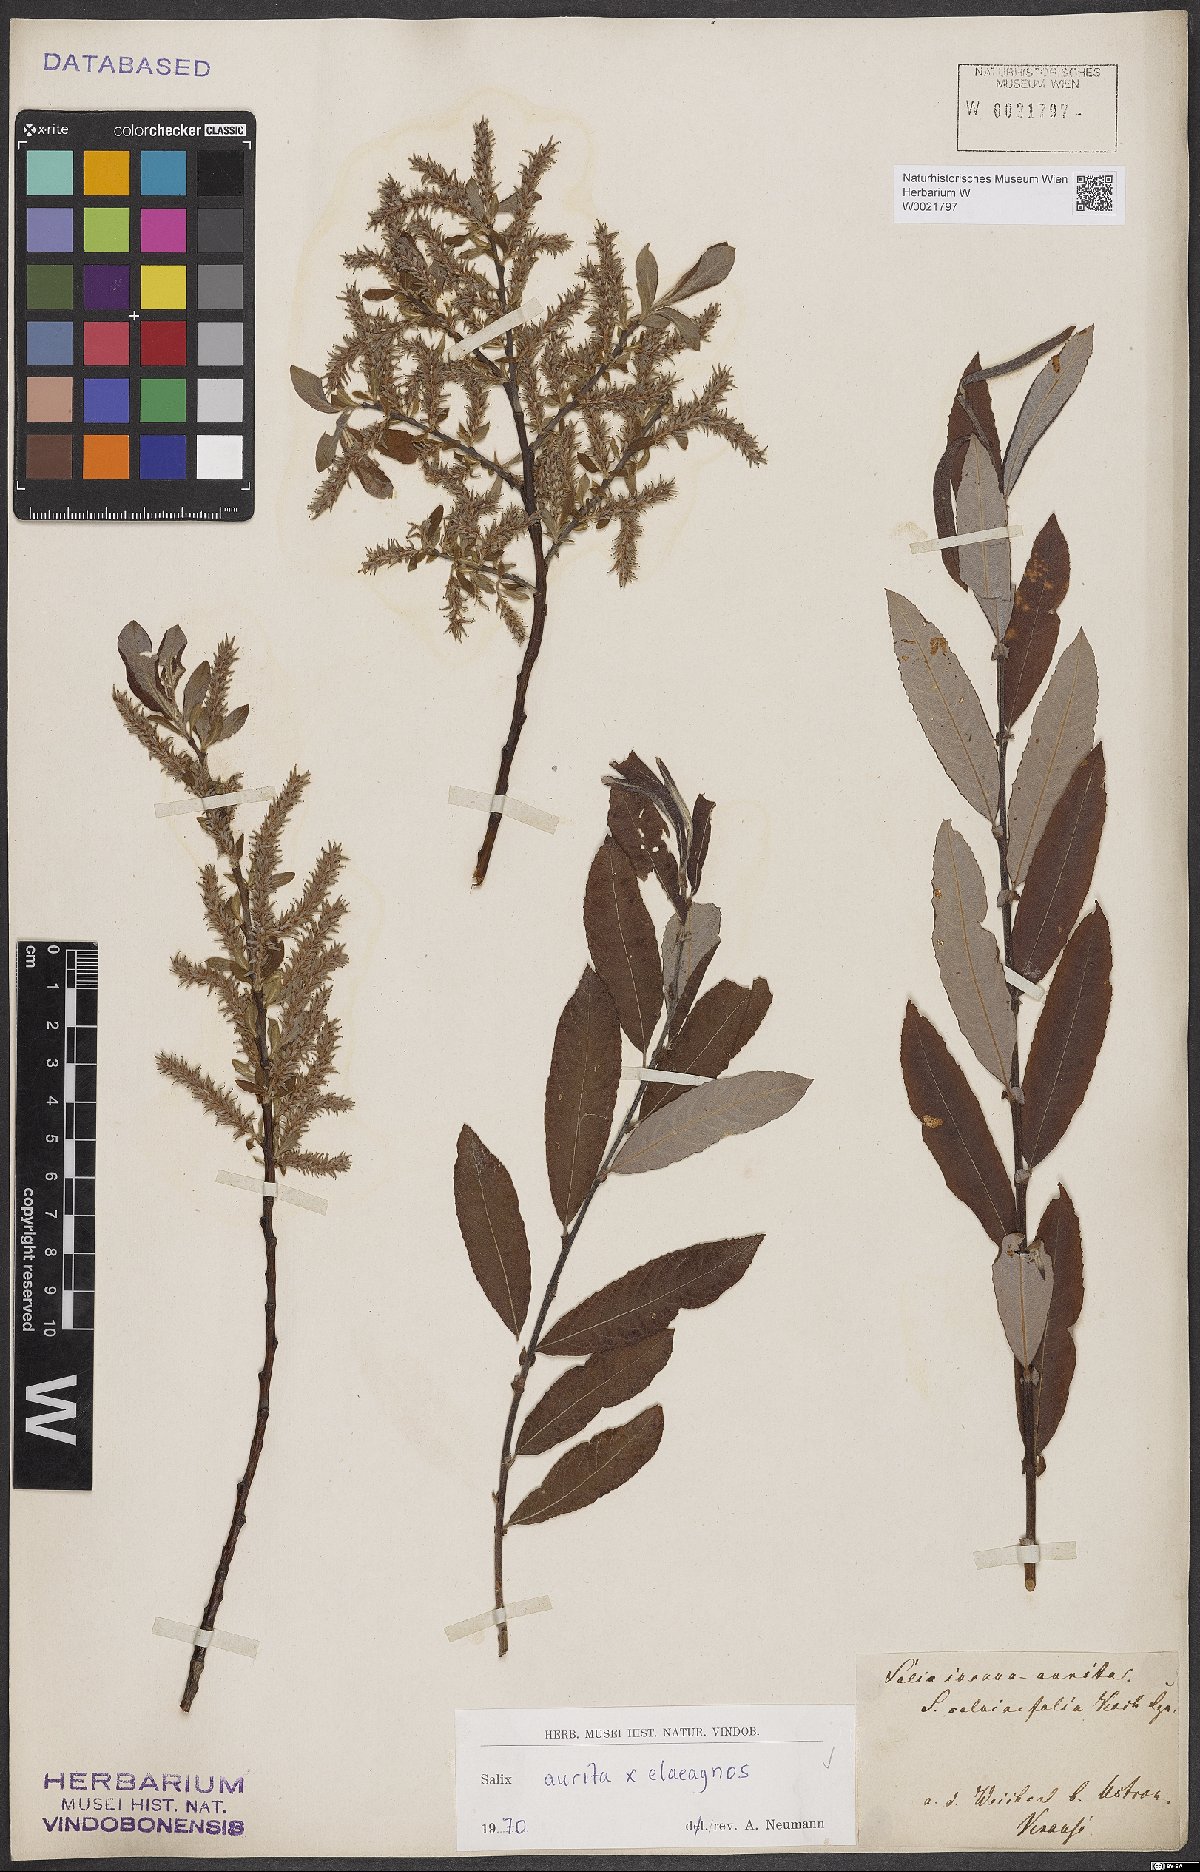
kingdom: Plantae
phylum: Tracheophyta
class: Magnoliopsida
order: Malpighiales
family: Salicaceae
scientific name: Salicaceae
